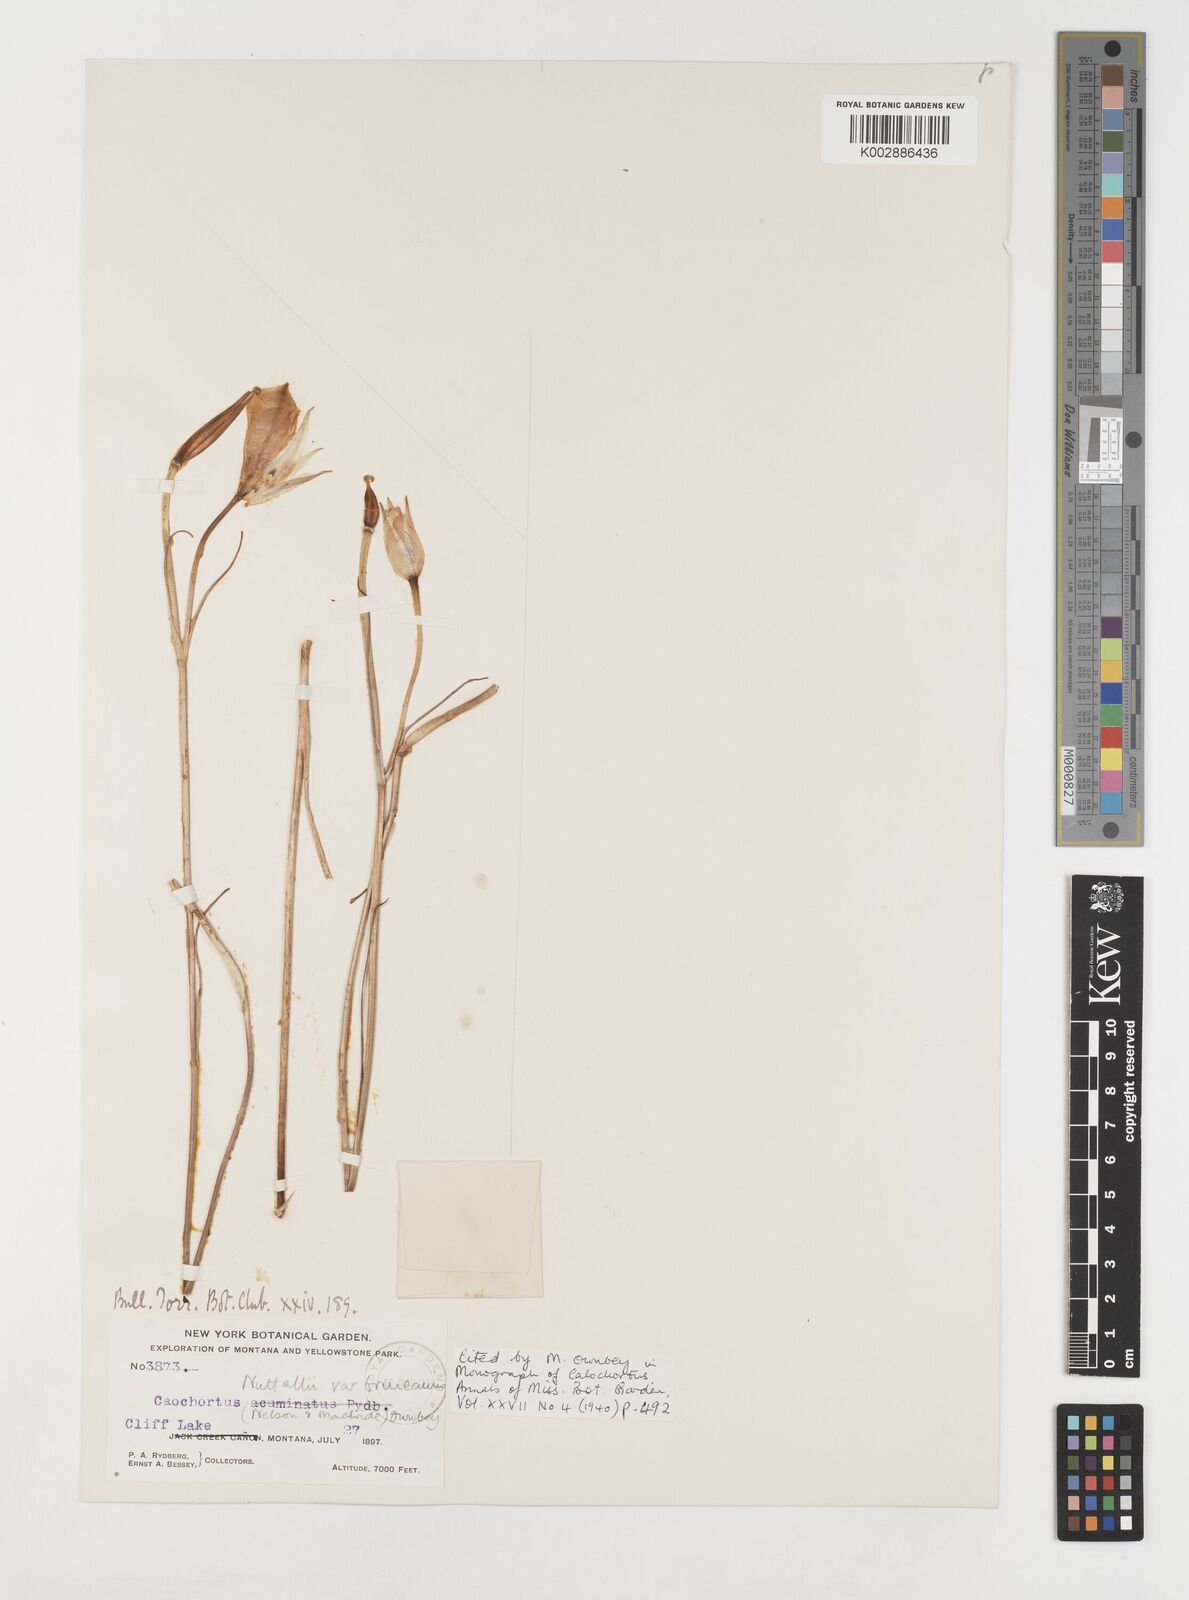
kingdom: Plantae
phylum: Tracheophyta
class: Liliopsida
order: Liliales
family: Liliaceae
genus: Calochortus
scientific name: Calochortus bruneaunis
